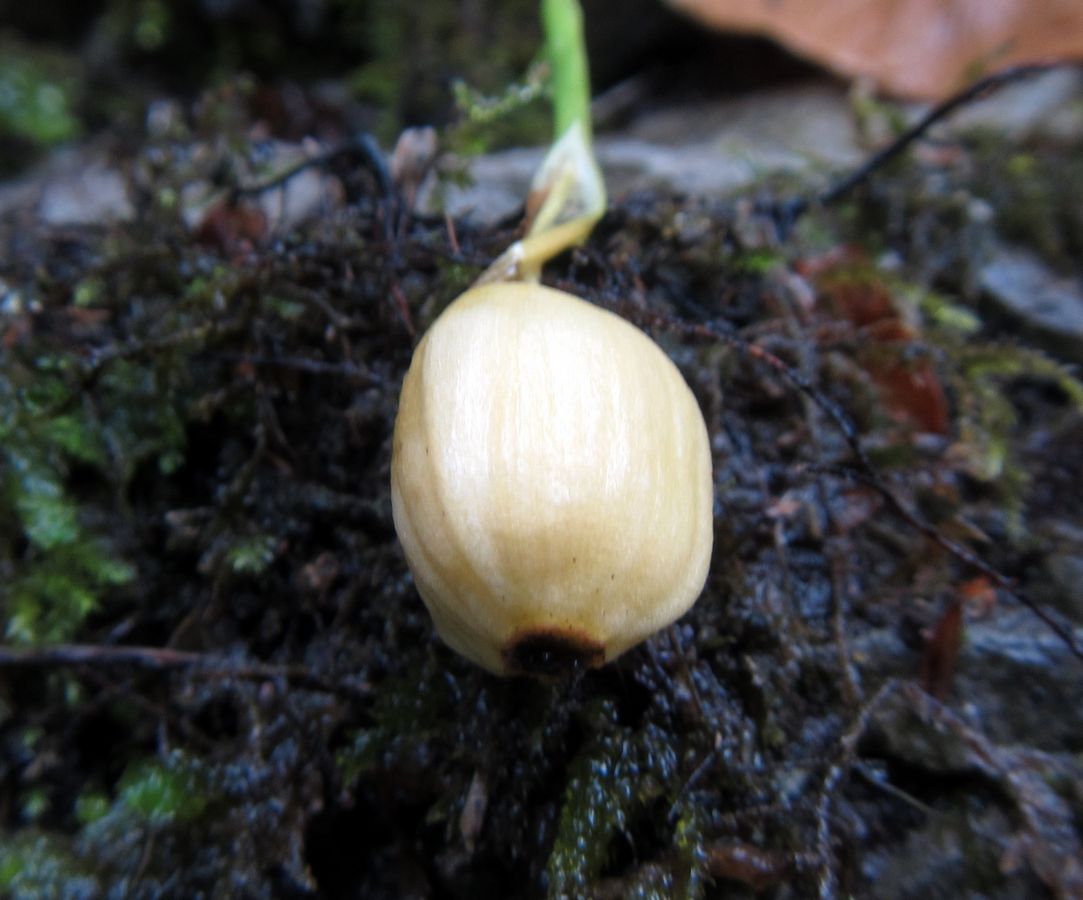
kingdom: Plantae
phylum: Tracheophyta
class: Liliopsida
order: Asparagales
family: Amaryllidaceae
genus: Galanthus
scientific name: Galanthus woronowii
